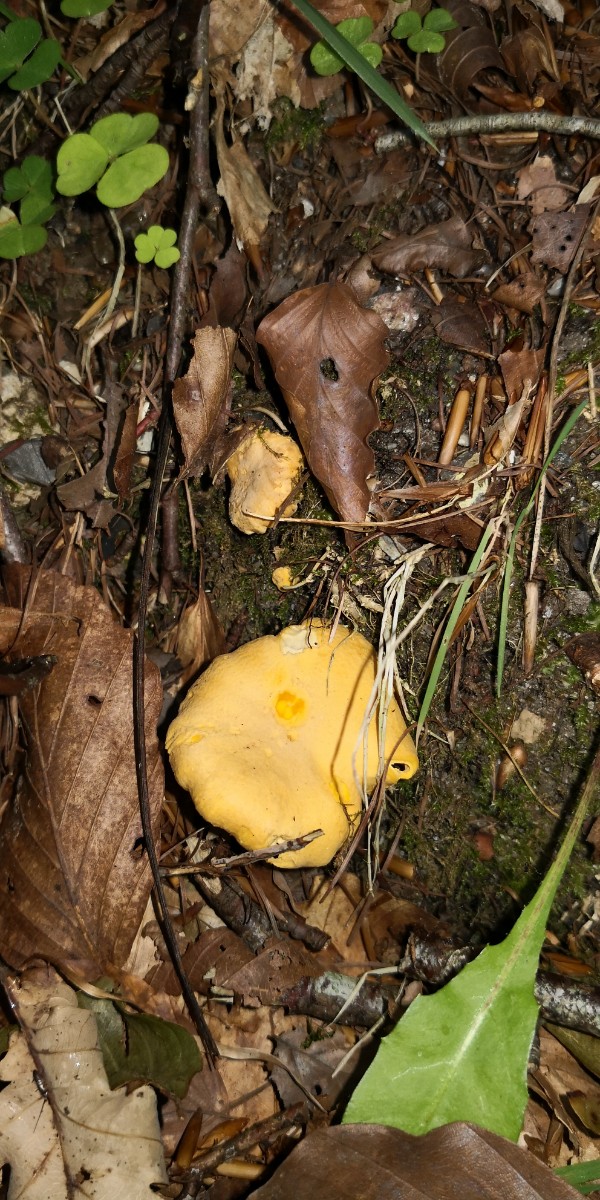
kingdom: Fungi
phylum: Basidiomycota
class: Agaricomycetes
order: Cantharellales
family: Hydnaceae
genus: Cantharellus
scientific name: Cantharellus pallens
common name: bleg kantarel
